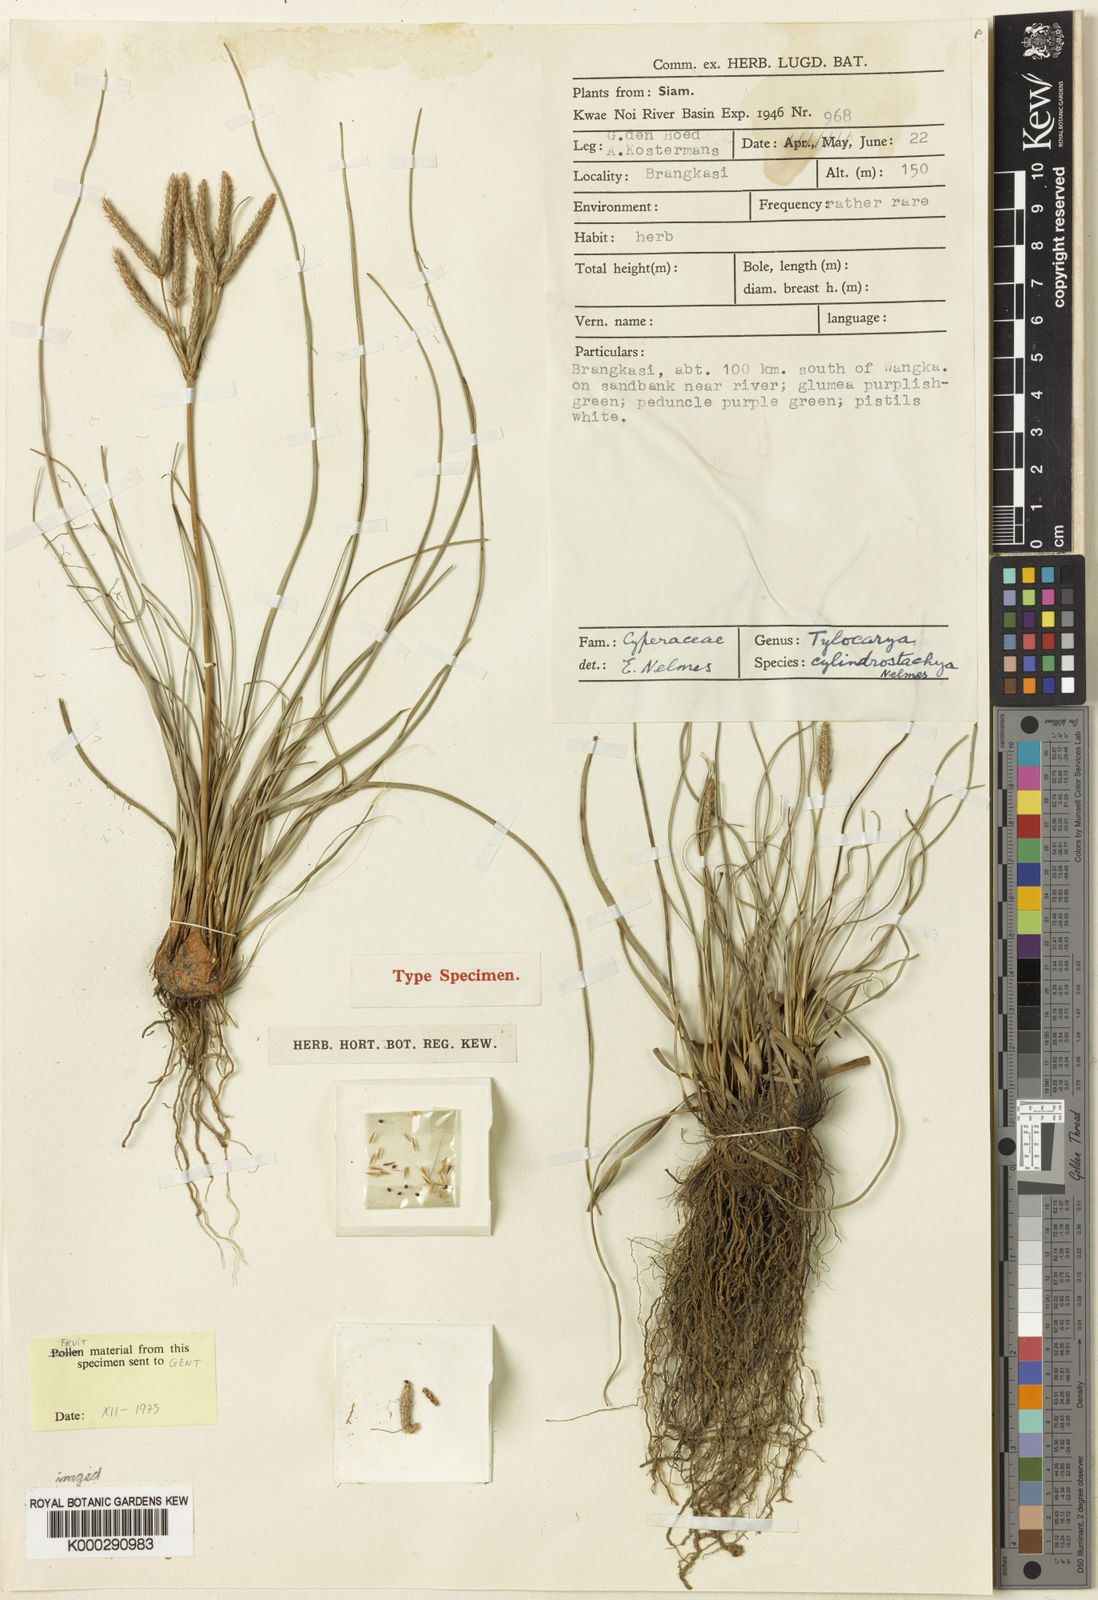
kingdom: Plantae
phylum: Tracheophyta
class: Liliopsida
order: Poales
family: Cyperaceae
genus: Fimbristylis
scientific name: Fimbristylis nelmesii
